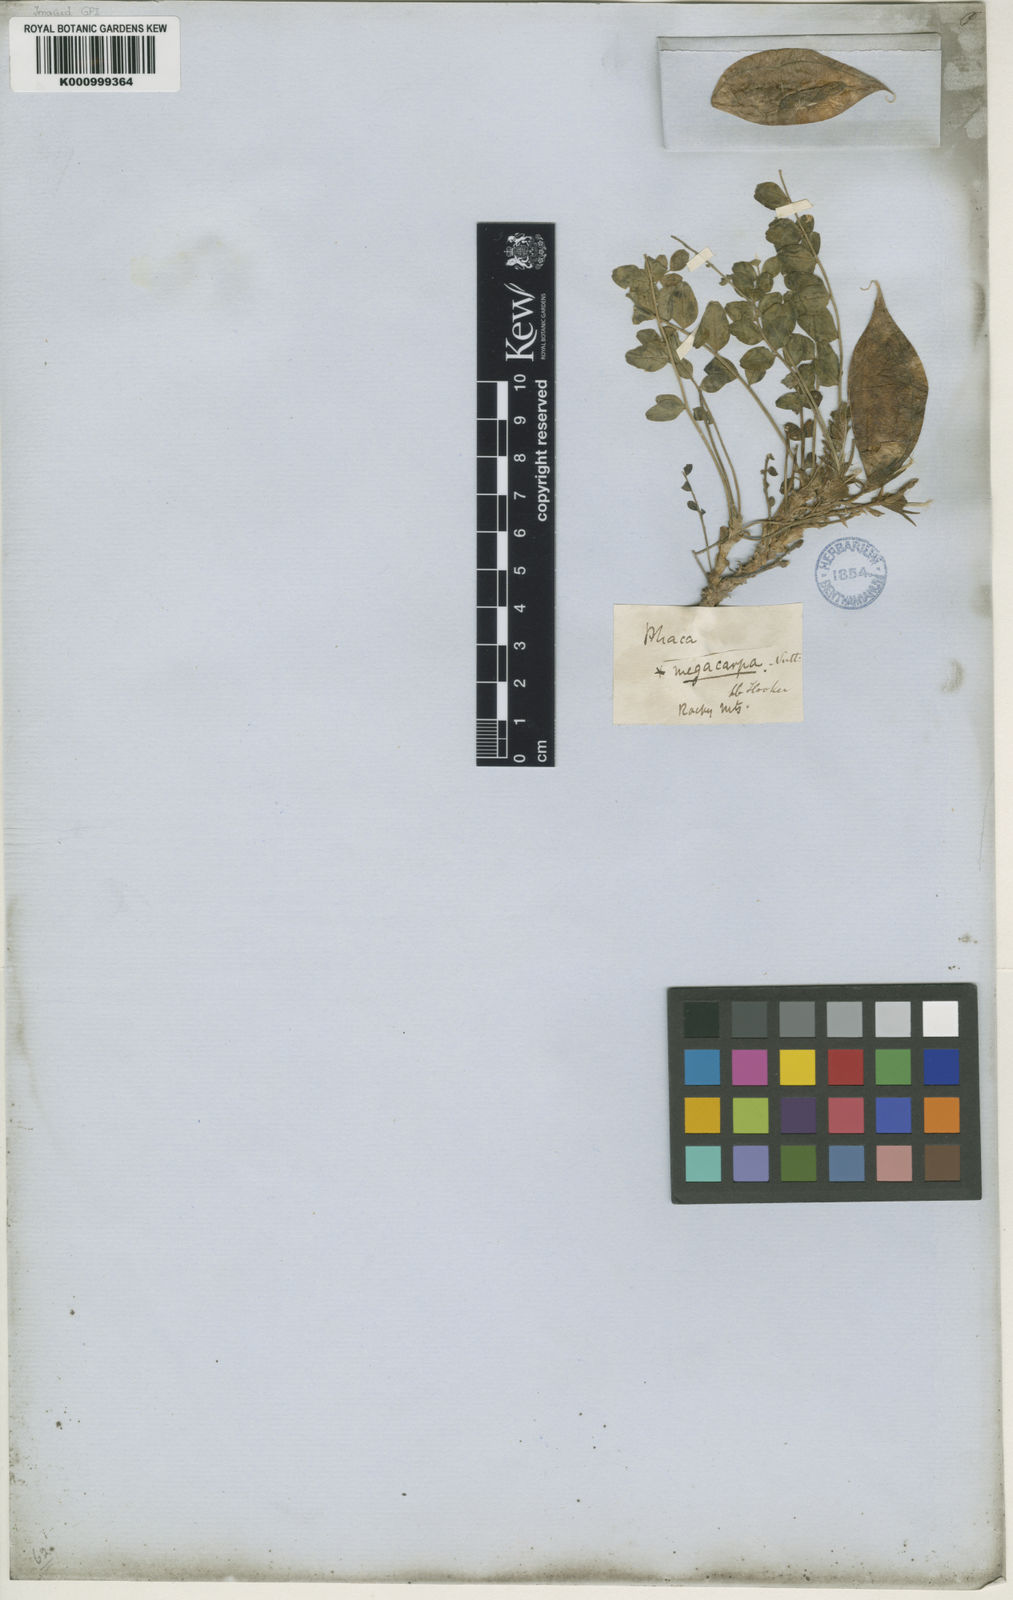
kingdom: Plantae
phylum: Tracheophyta
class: Magnoliopsida
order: Fabales
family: Fabaceae
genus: Astragalus
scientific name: Astragalus megacarpus
